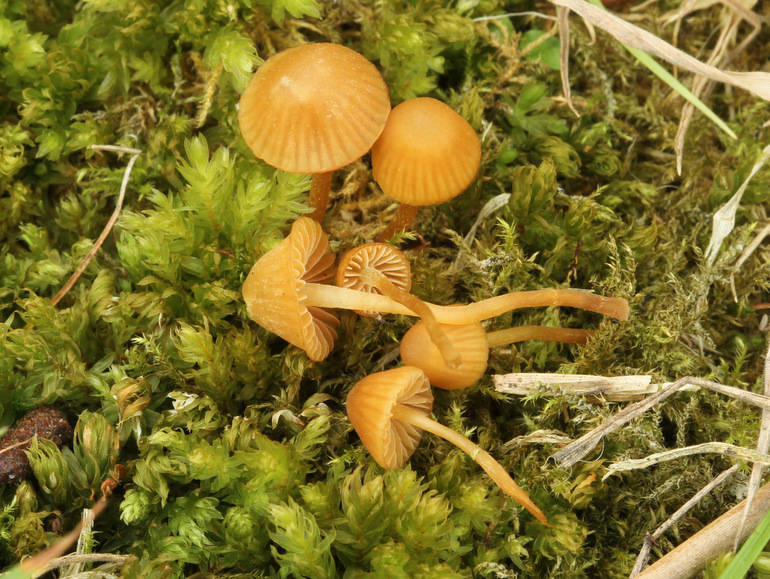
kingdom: Fungi
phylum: Basidiomycota
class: Agaricomycetes
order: Agaricales
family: Hymenogastraceae
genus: Galerina
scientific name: Galerina hypnorum
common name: mos-hjelmhat
